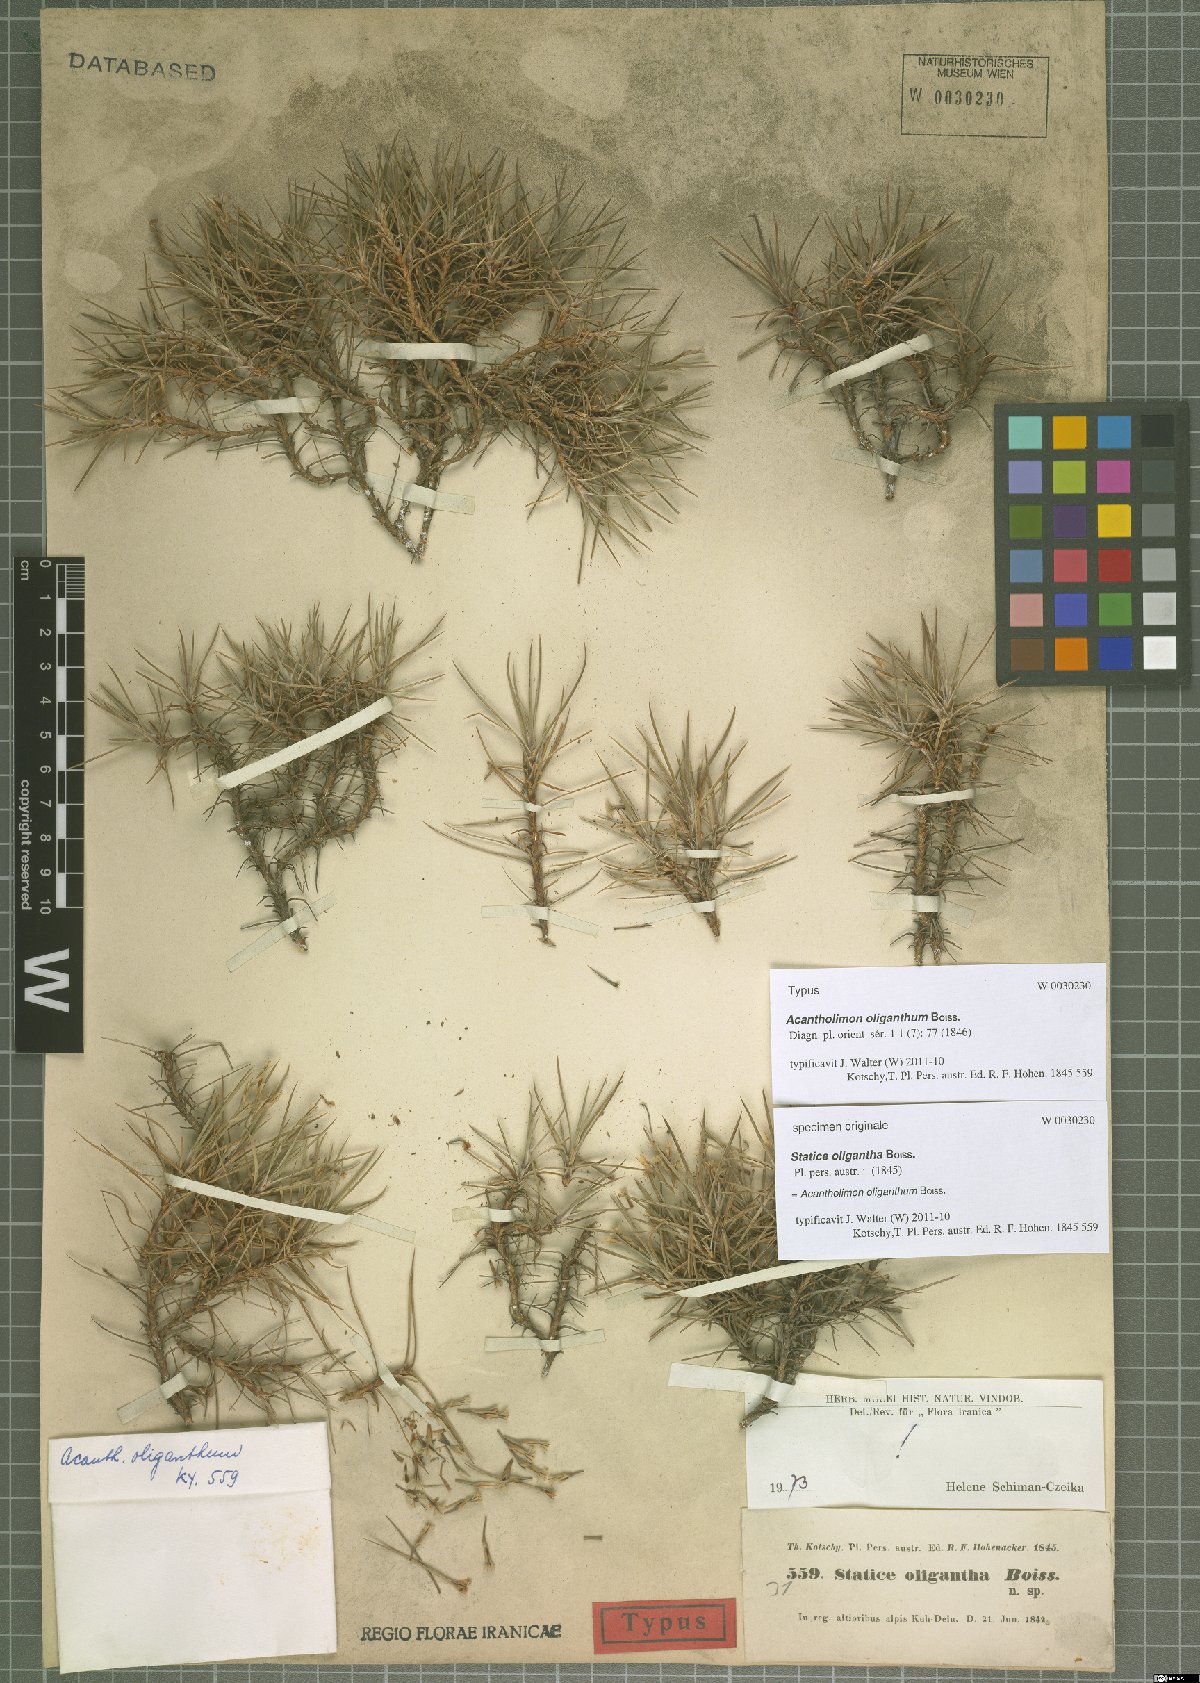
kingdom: Plantae
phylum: Tracheophyta
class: Magnoliopsida
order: Caryophyllales
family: Plumbaginaceae
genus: Acantholimon
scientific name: Acantholimon oliganthum
